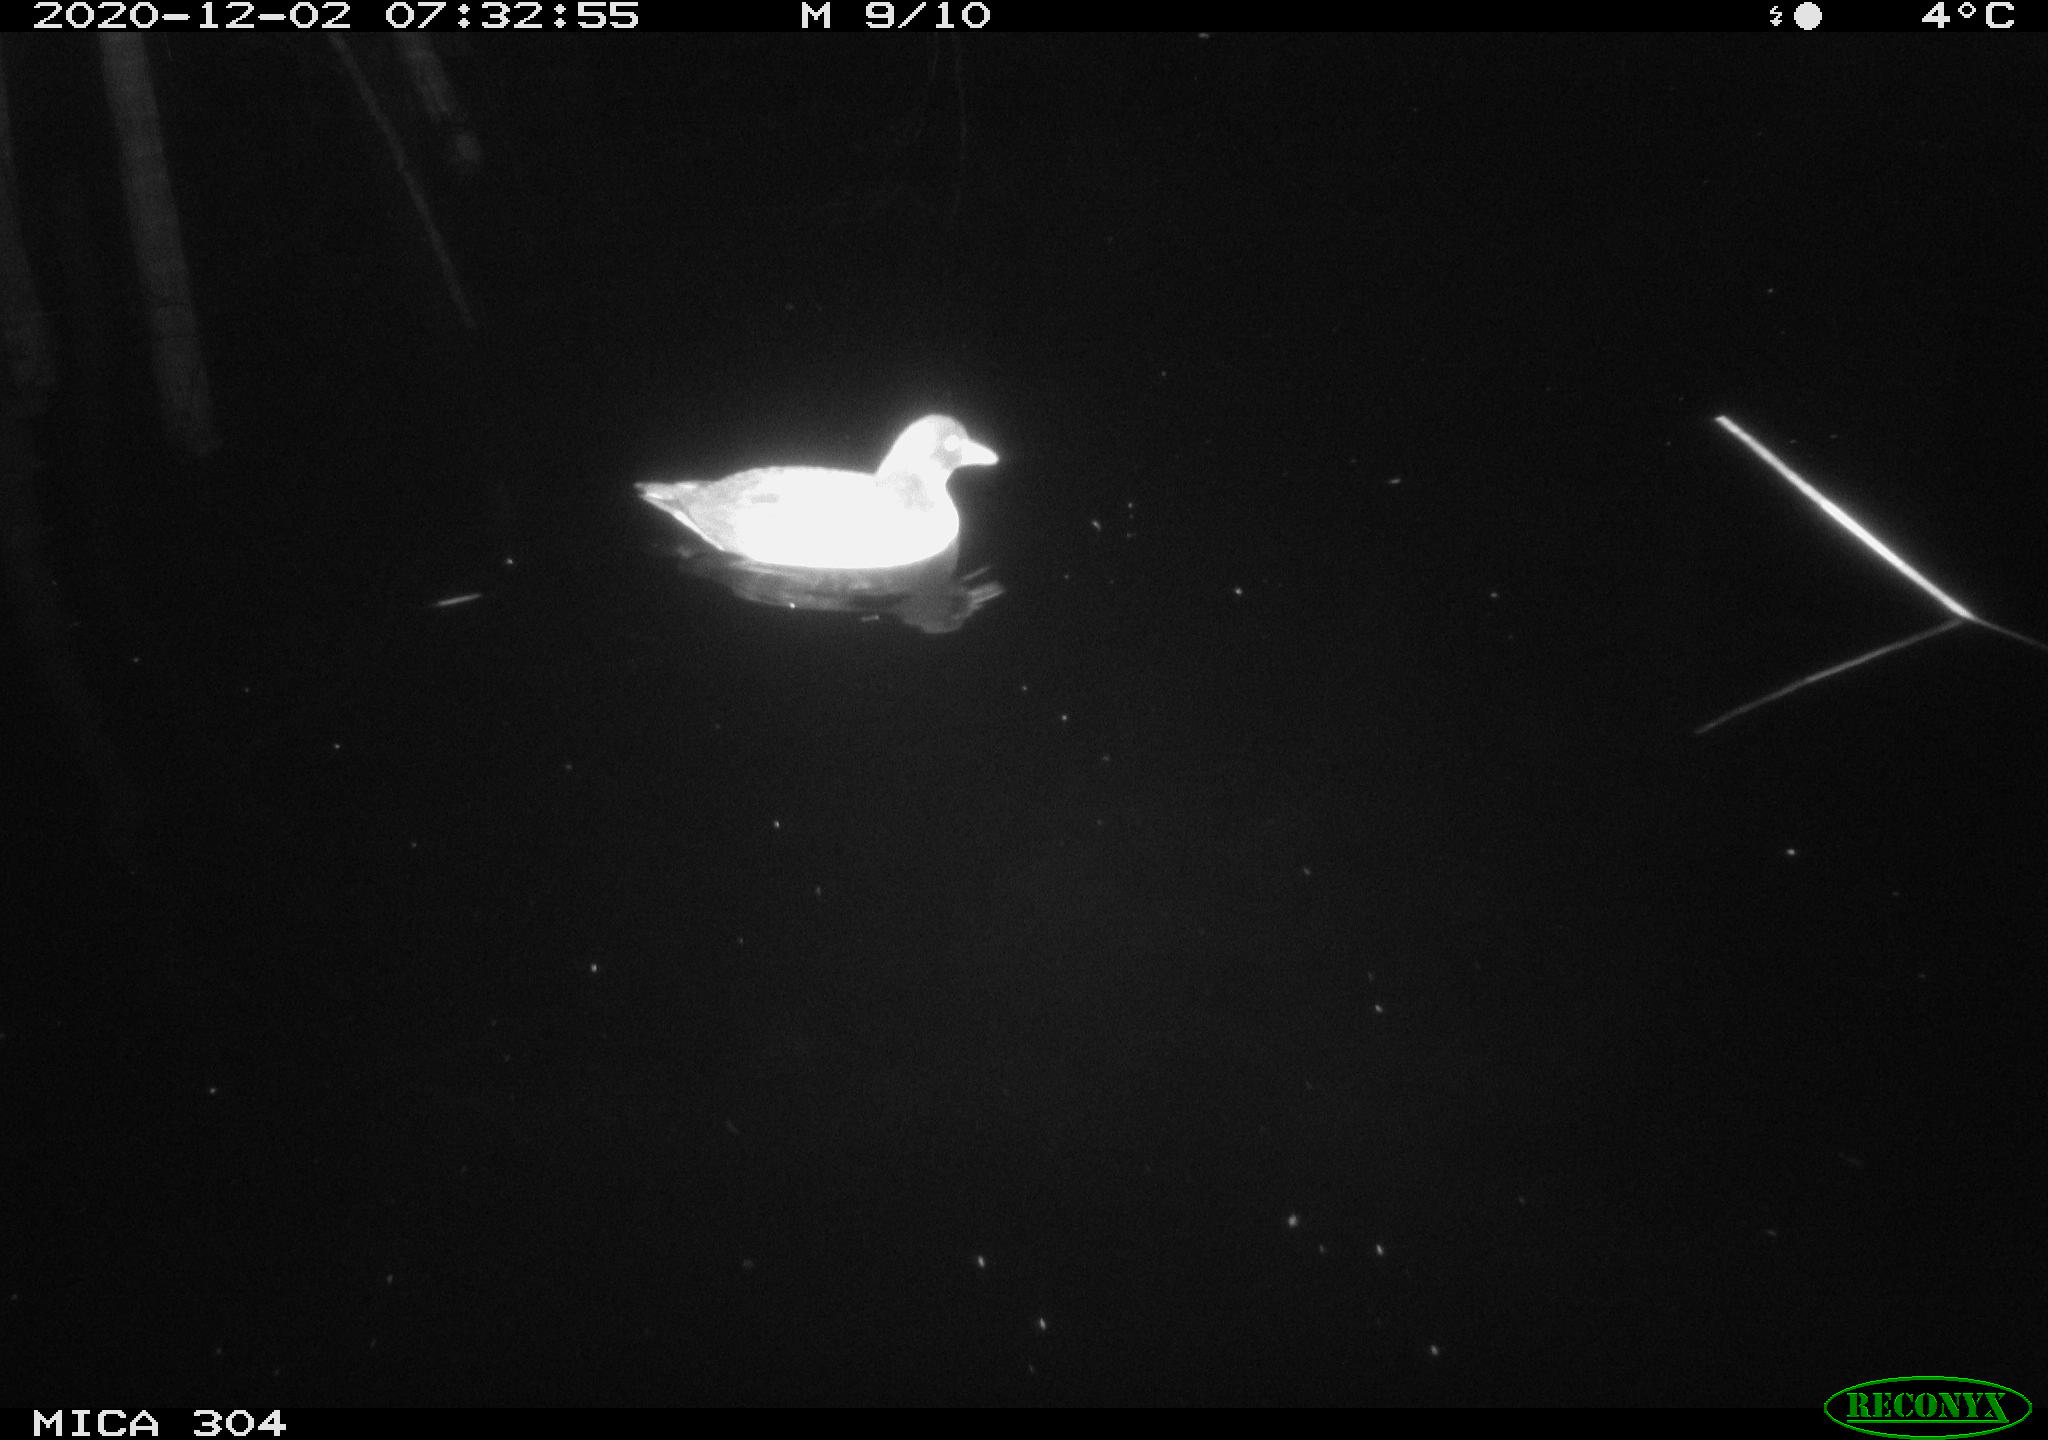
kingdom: Animalia
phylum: Chordata
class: Aves
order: Gruiformes
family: Rallidae
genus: Gallinula
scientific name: Gallinula chloropus
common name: Common moorhen
